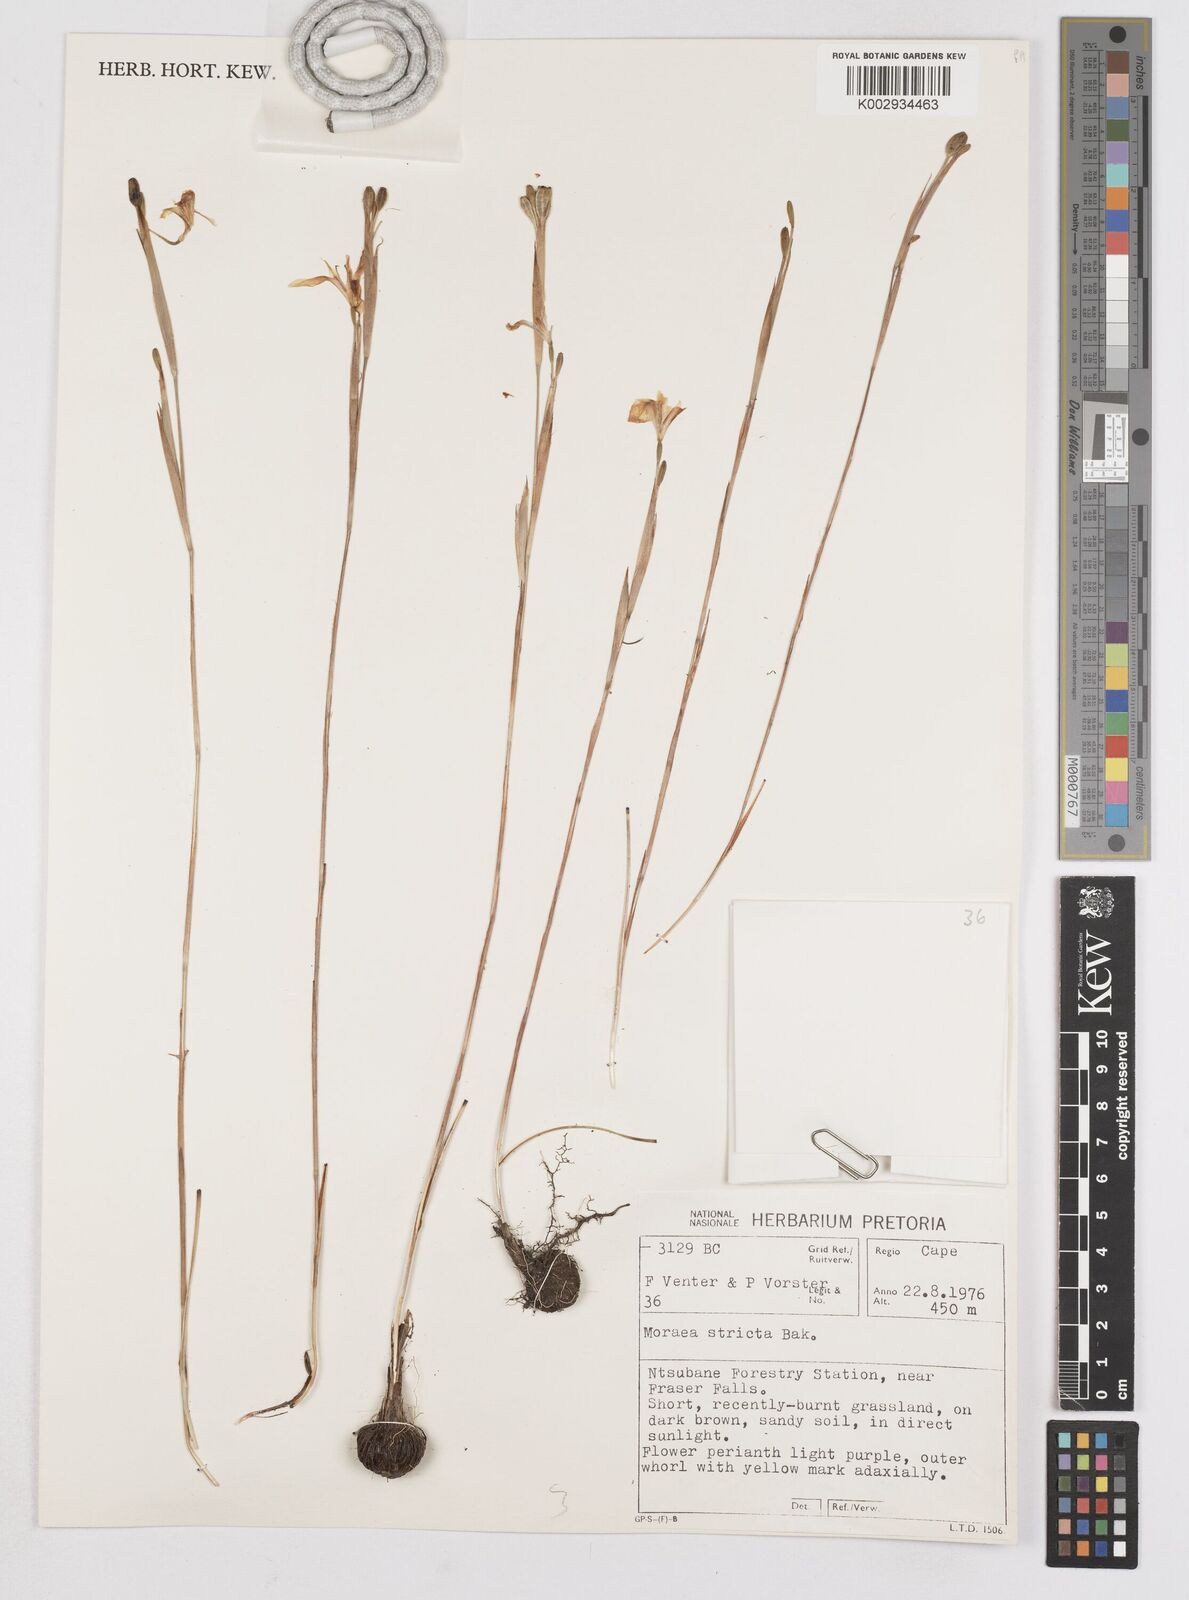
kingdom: Plantae
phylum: Tracheophyta
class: Liliopsida
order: Asparagales
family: Iridaceae
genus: Moraea
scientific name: Moraea stricta
